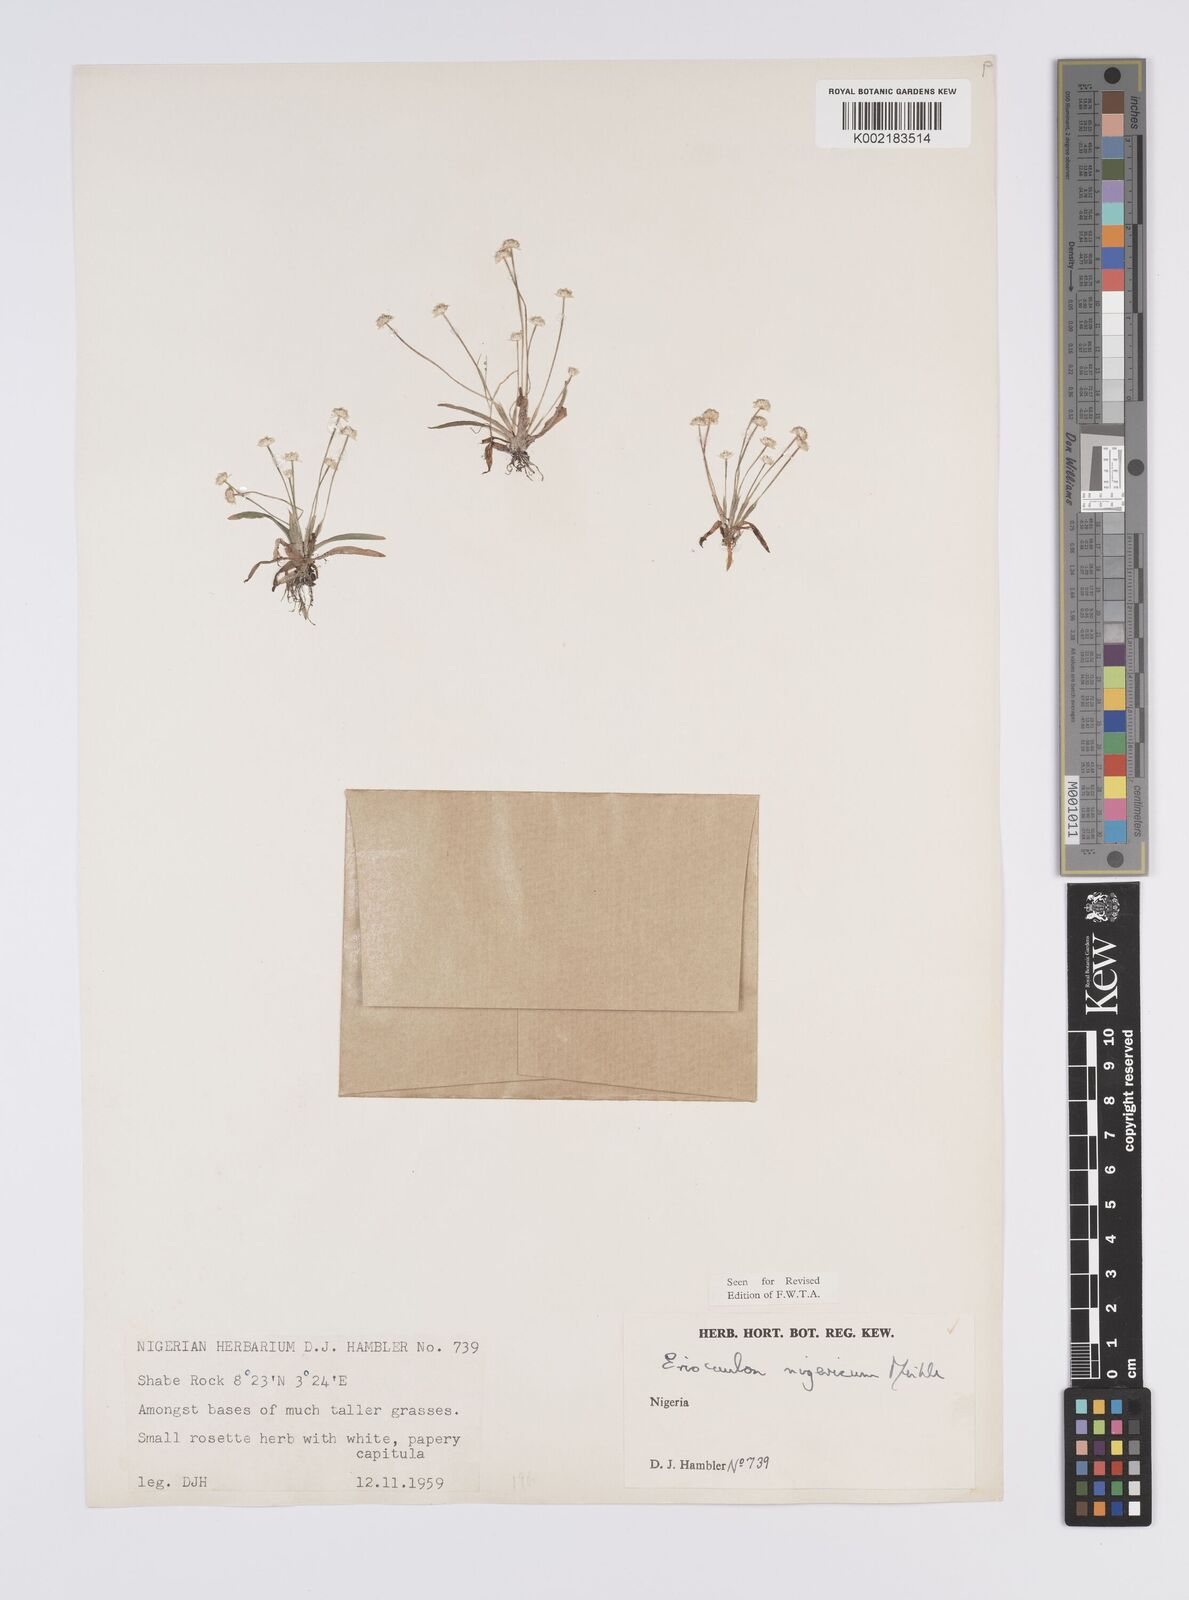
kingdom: Plantae
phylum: Tracheophyta
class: Liliopsida
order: Poales
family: Eriocaulaceae
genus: Eriocaulon
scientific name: Eriocaulon nigericum
